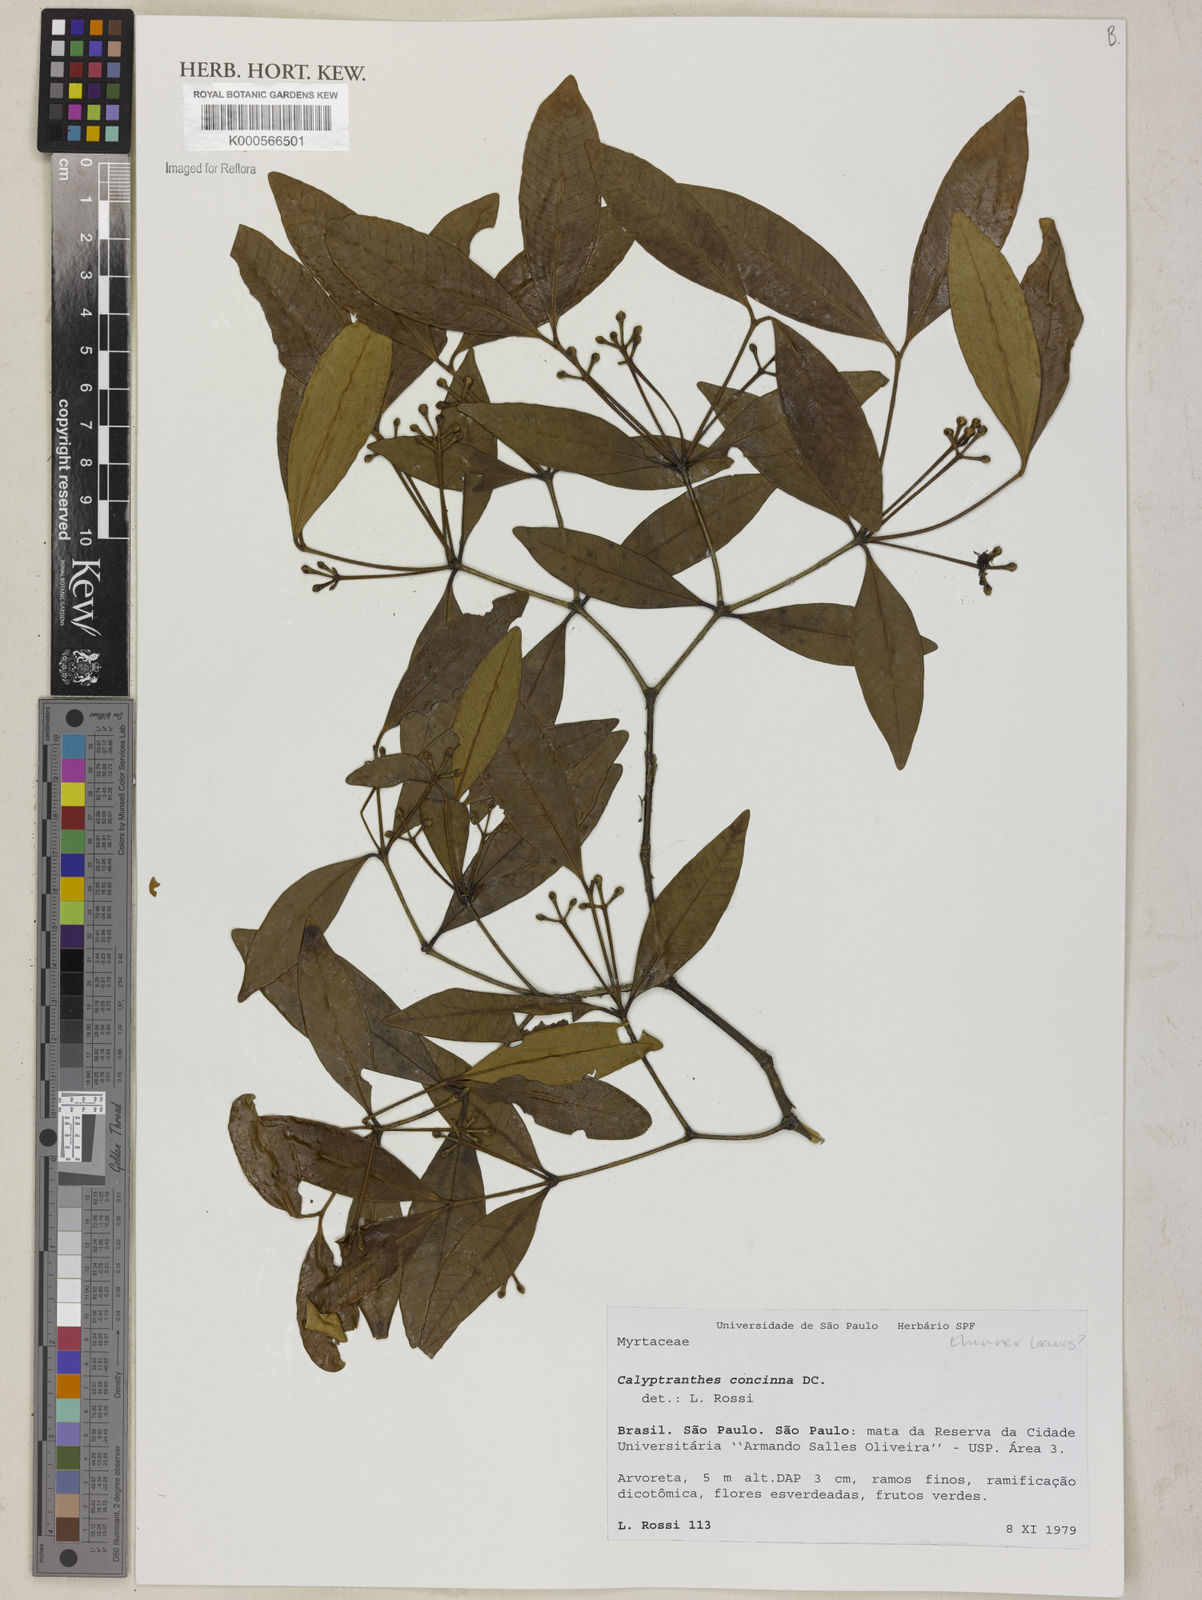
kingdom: Plantae
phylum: Tracheophyta
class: Magnoliopsida
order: Myrtales
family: Myrtaceae
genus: Myrcia
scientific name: Myrcia cruciflora
